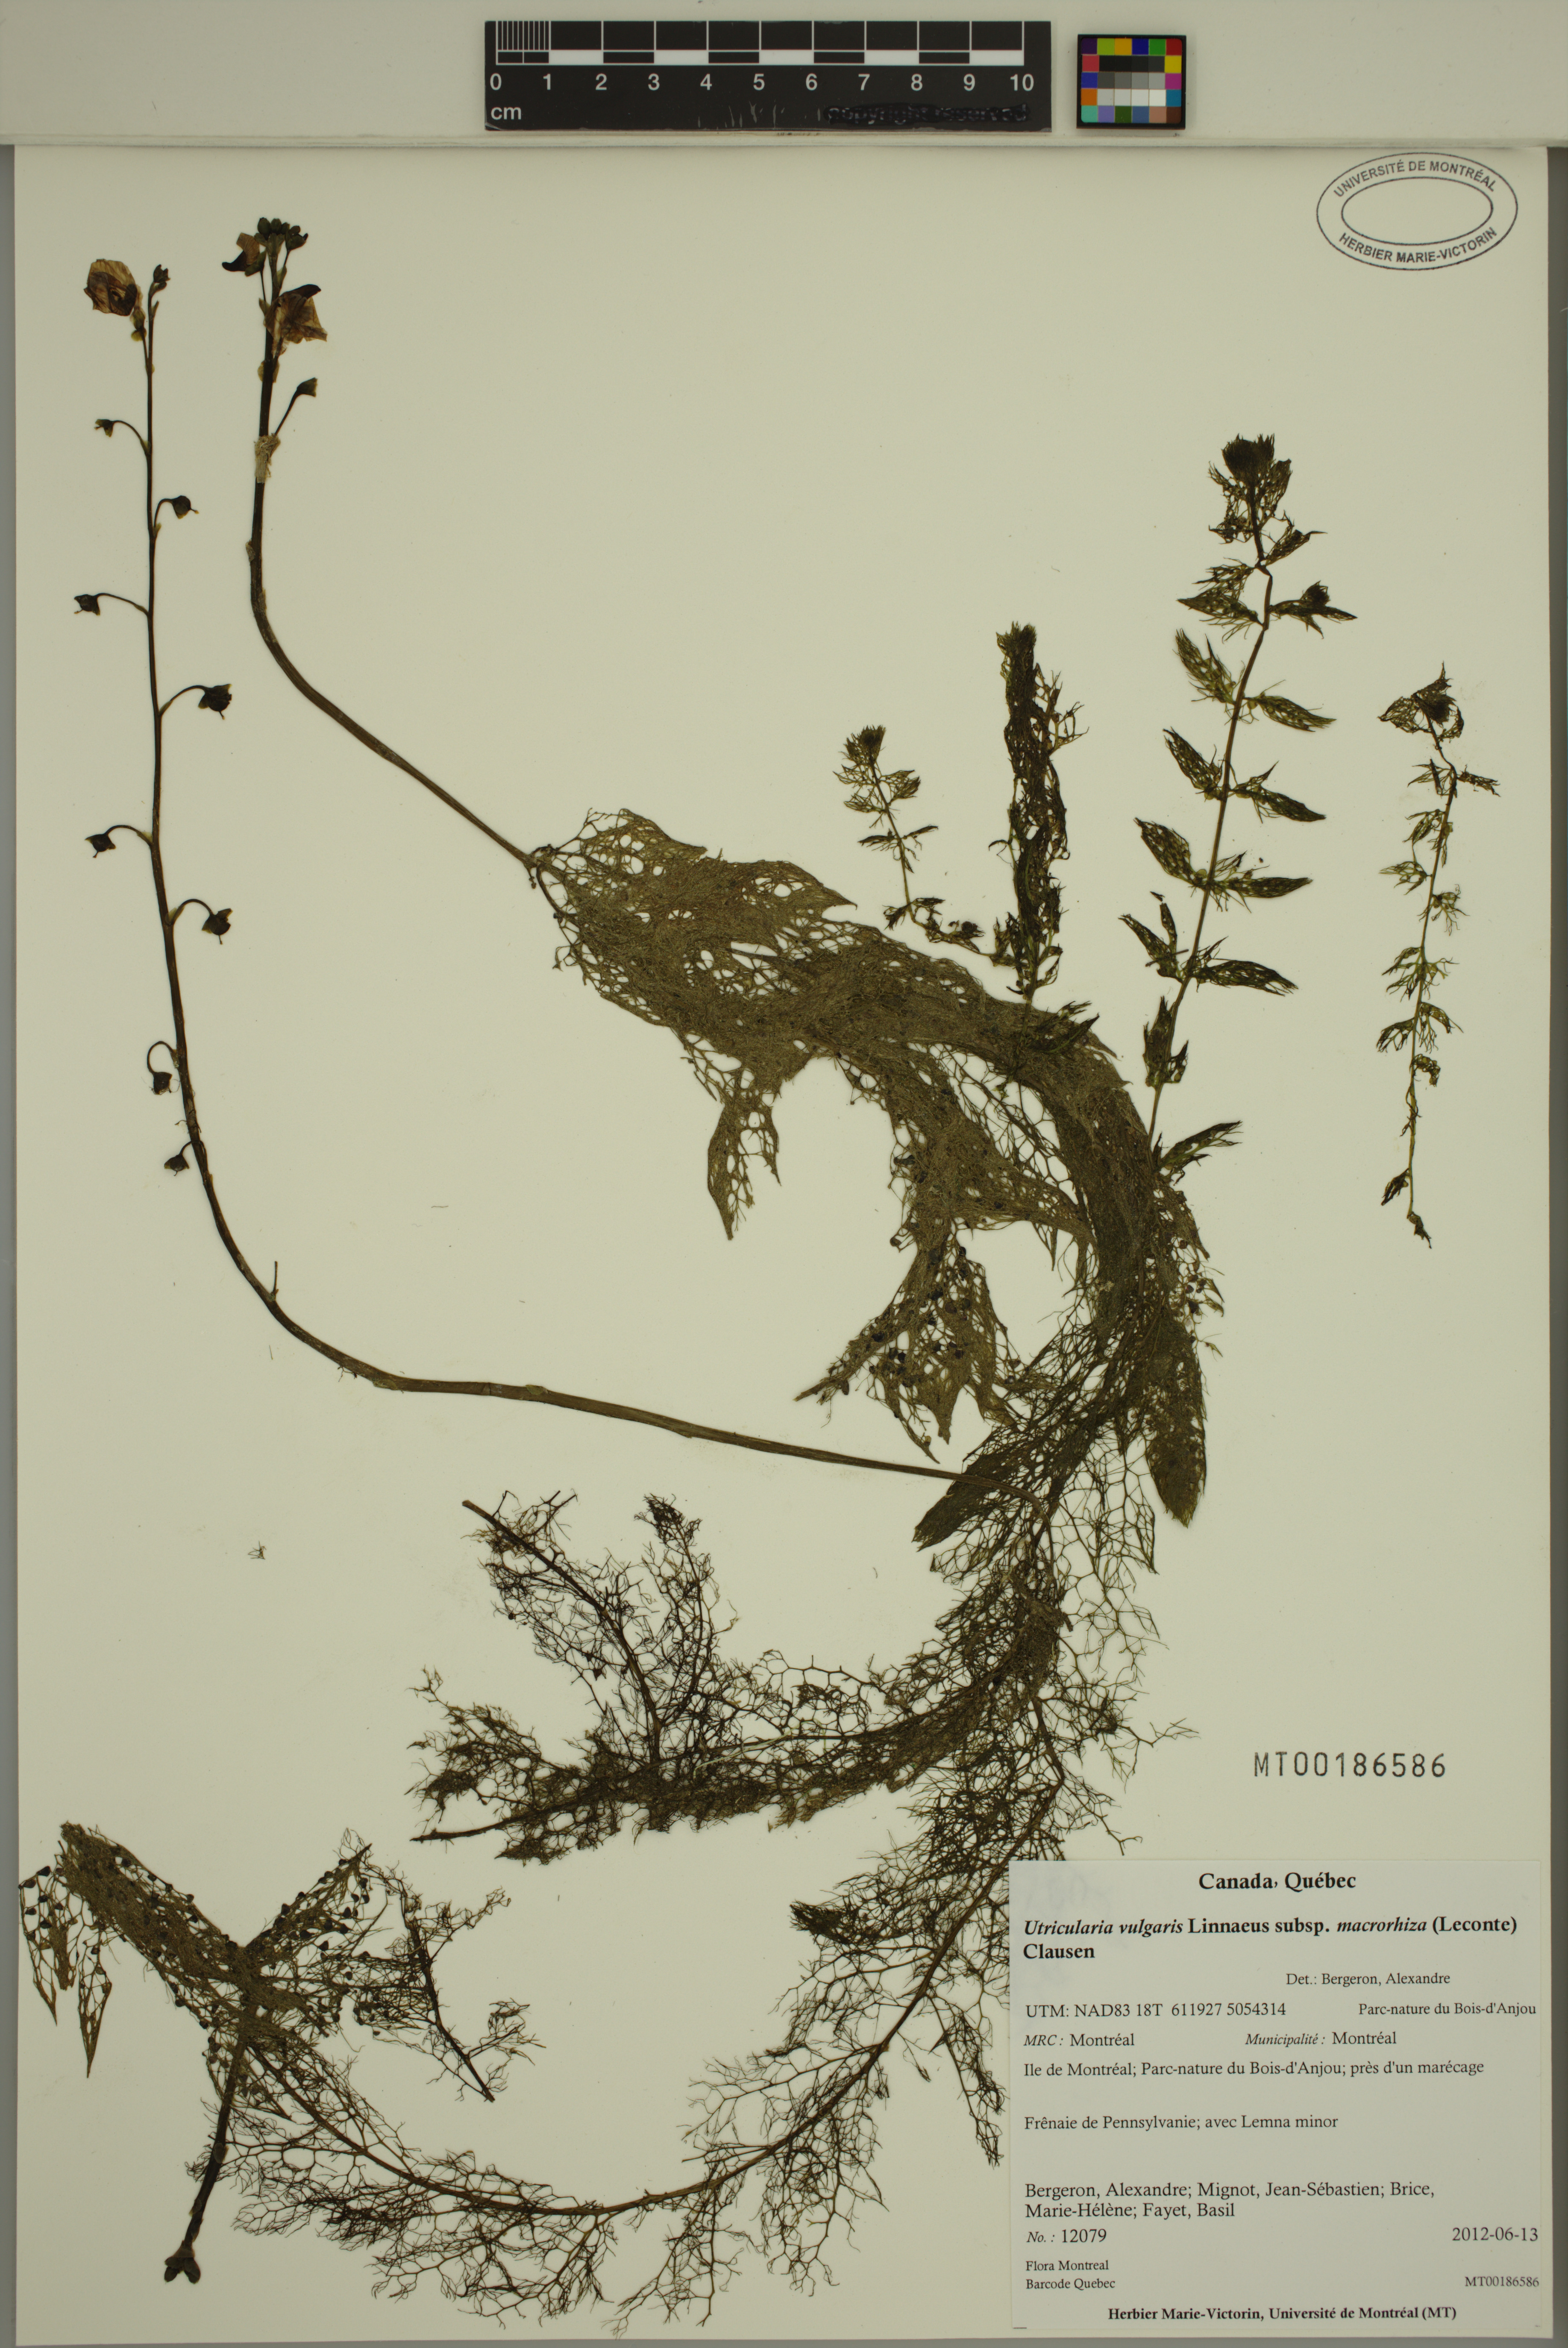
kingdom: Plantae
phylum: Tracheophyta
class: Magnoliopsida
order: Lamiales
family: Lentibulariaceae
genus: Utricularia
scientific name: Utricularia macrorhiza
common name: Common bladderwort
